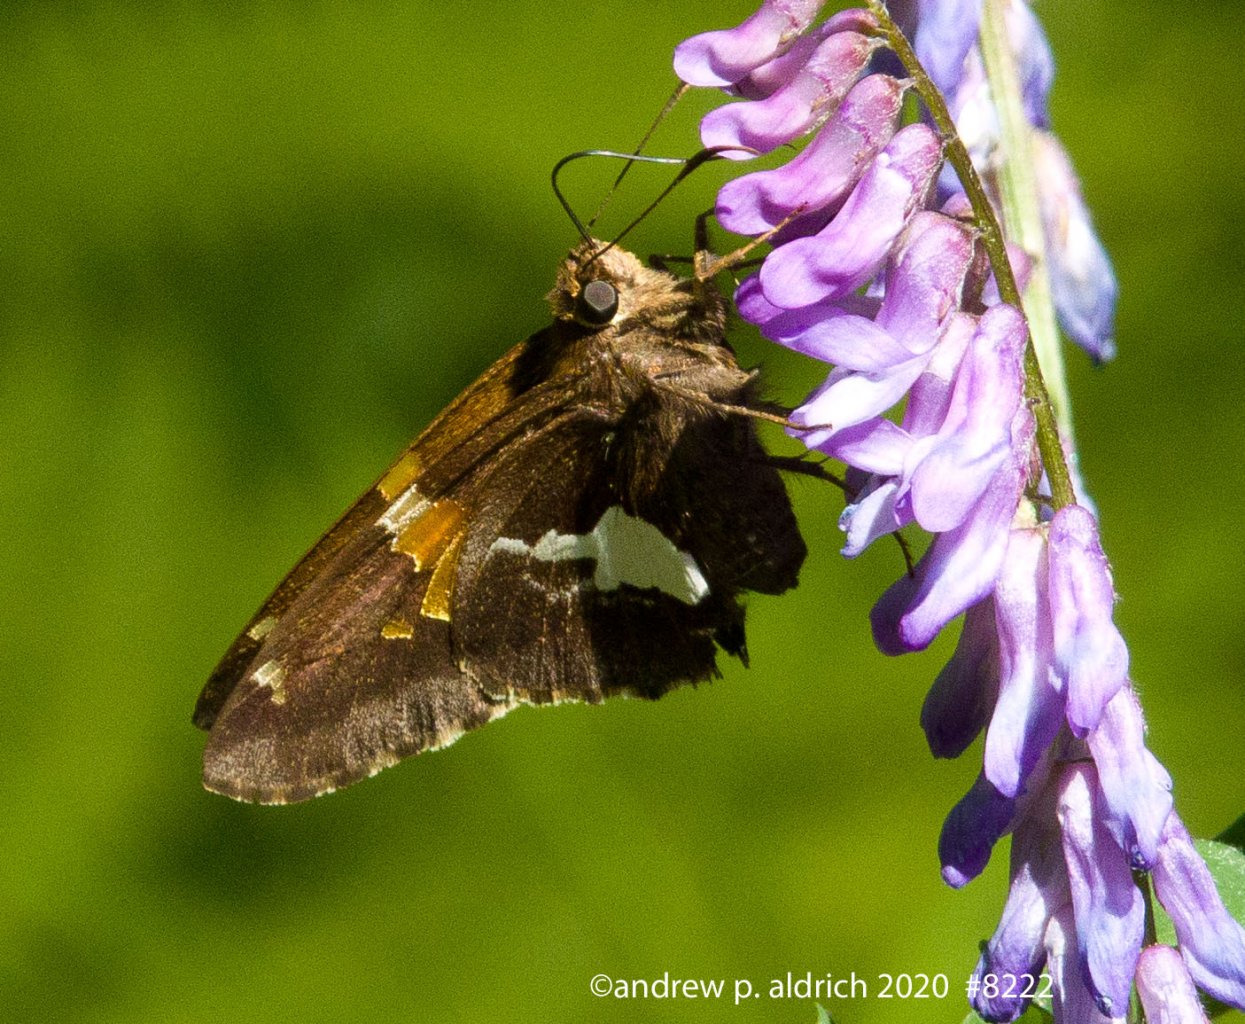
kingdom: Animalia
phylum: Arthropoda
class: Insecta
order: Lepidoptera
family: Hesperiidae
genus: Epargyreus
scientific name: Epargyreus clarus
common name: Silver-spotted Skipper
